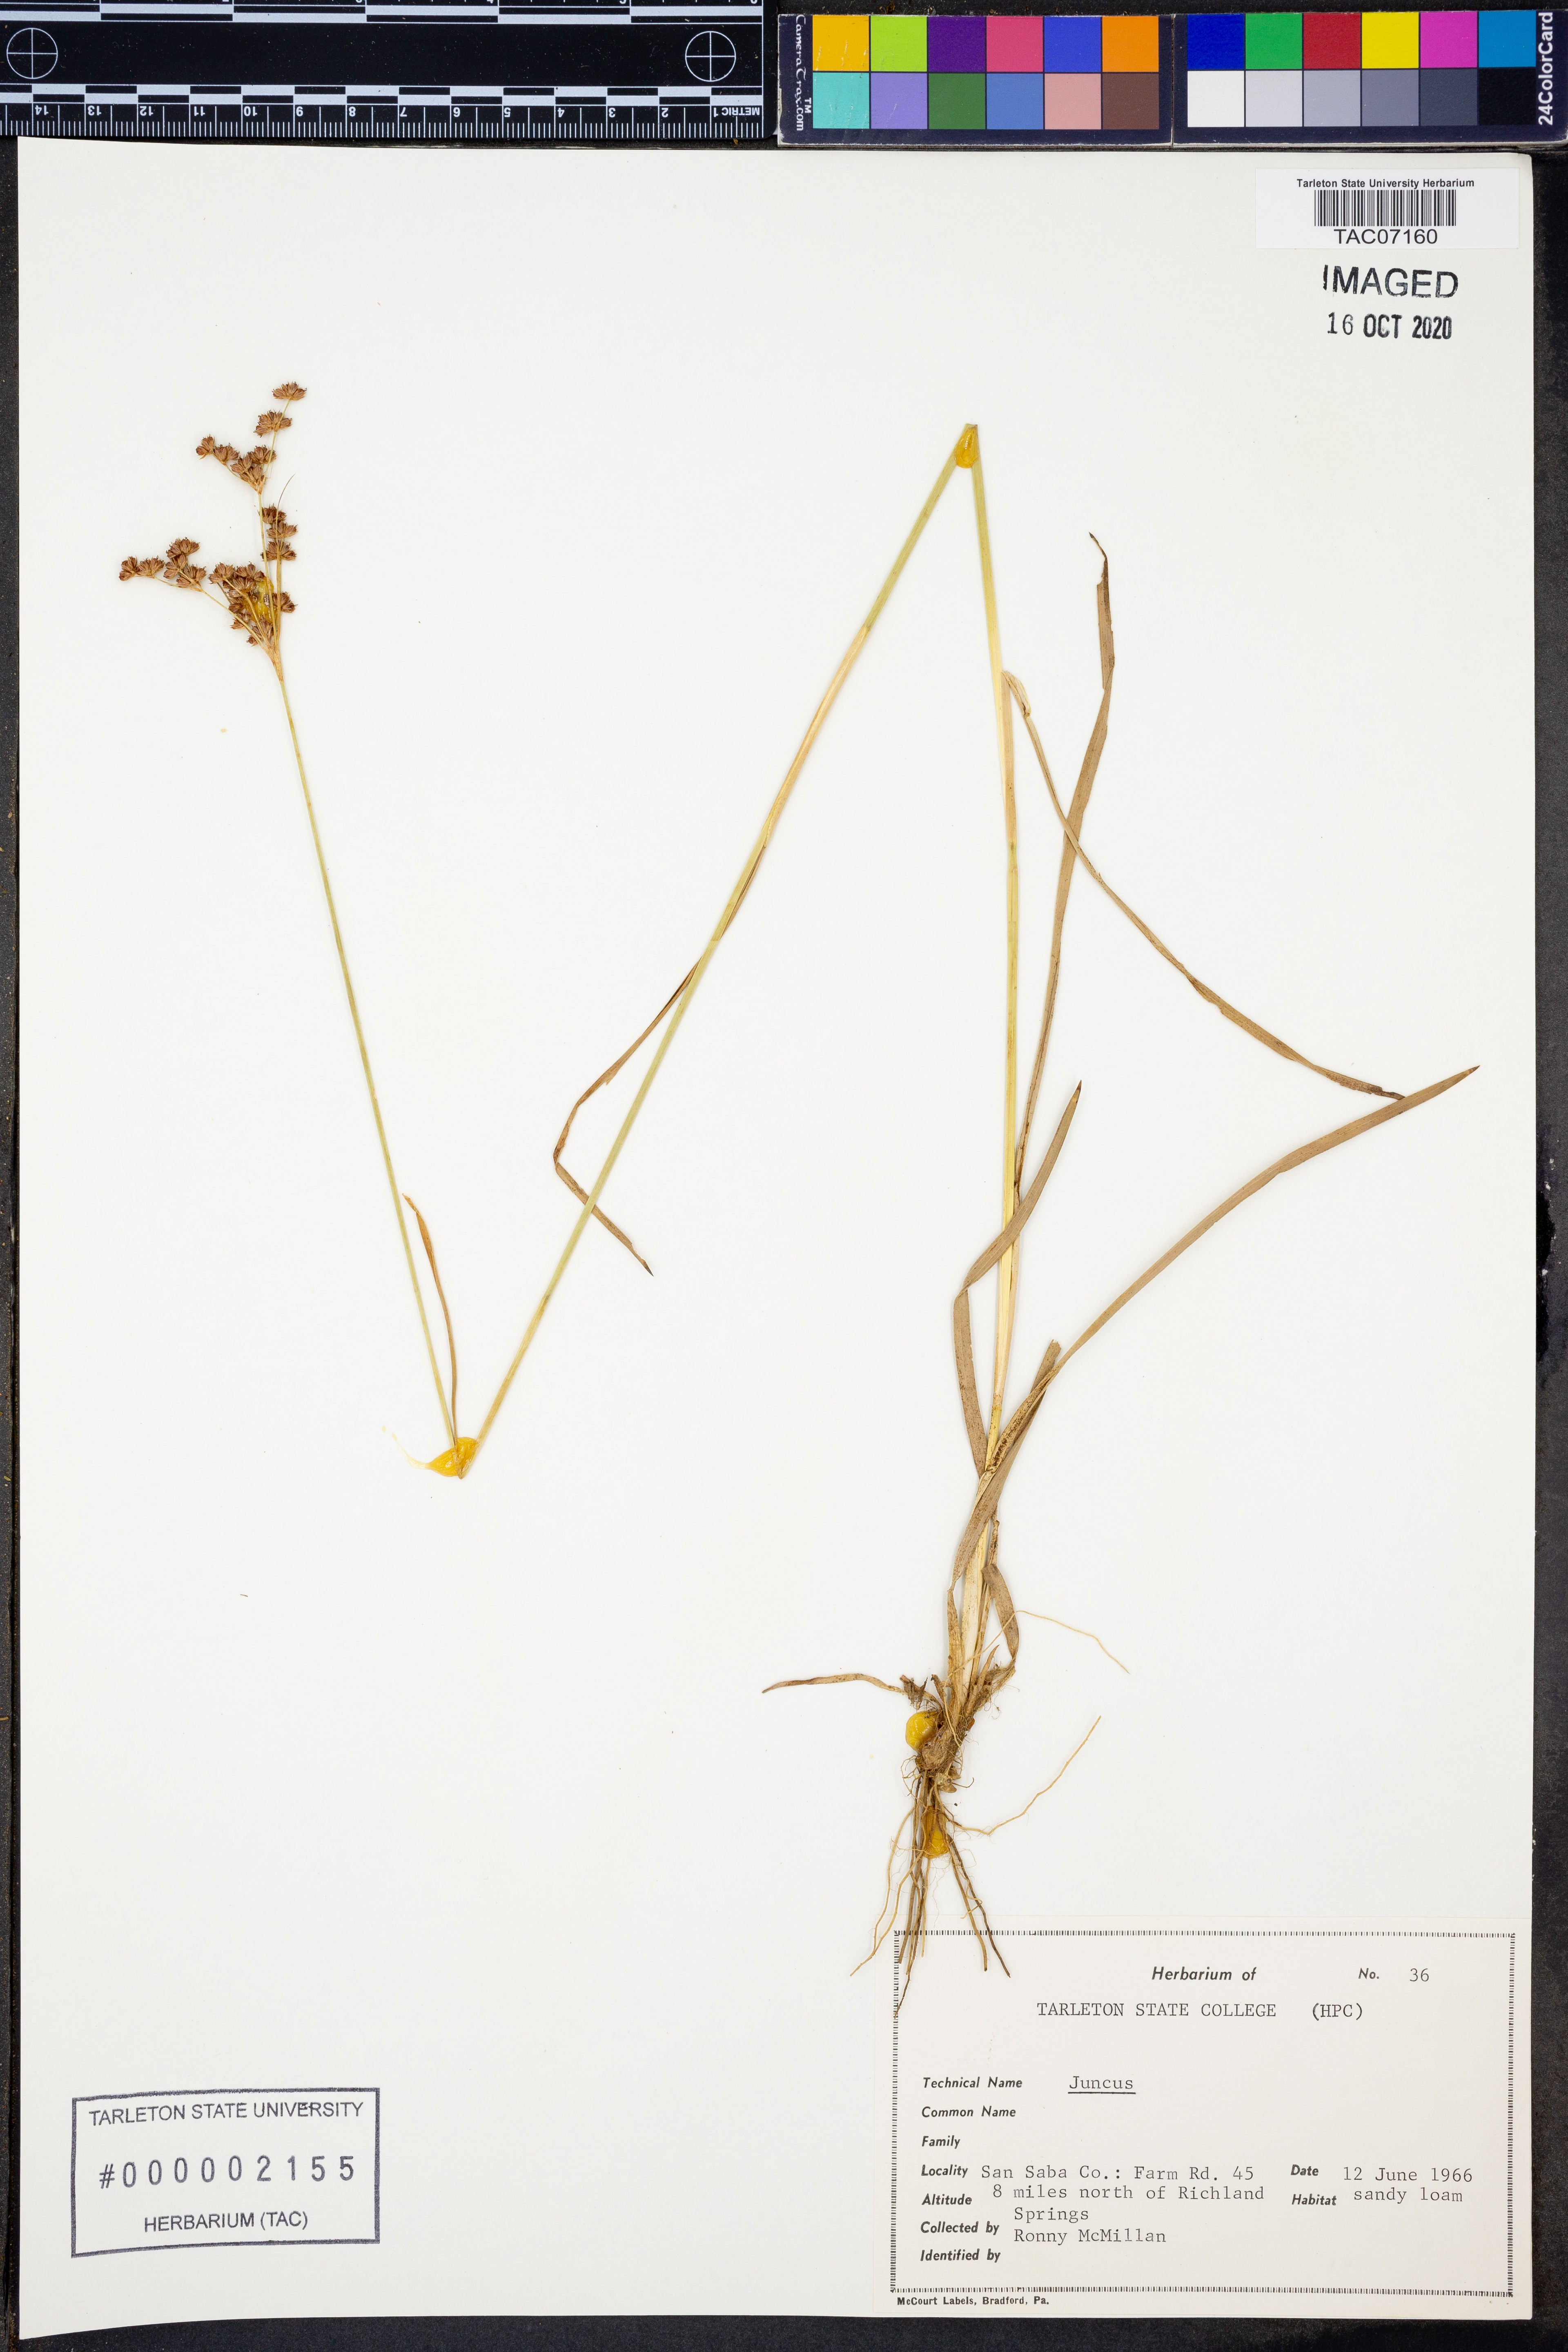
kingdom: Plantae
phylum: Tracheophyta
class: Liliopsida
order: Poales
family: Juncaceae
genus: Juncus
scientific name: Juncus
